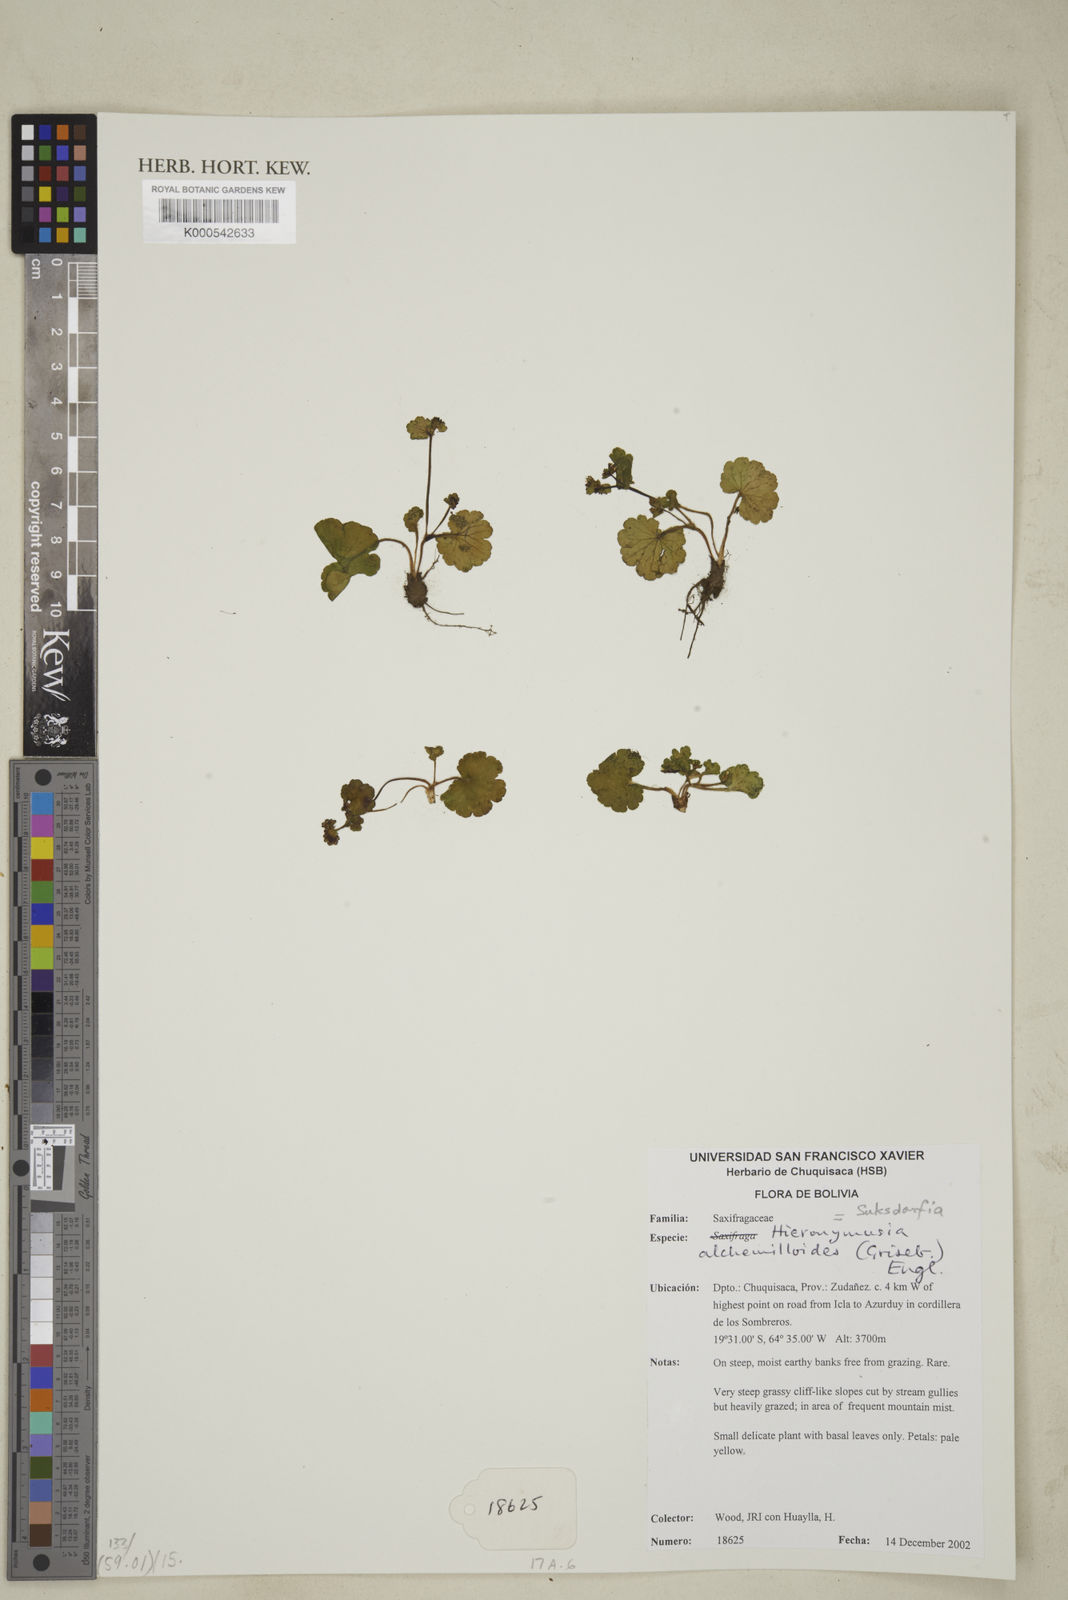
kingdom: Plantae
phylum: Tracheophyta
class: Magnoliopsida
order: Saxifragales
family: Saxifragaceae
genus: Hieronymusia
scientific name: Hieronymusia alchemilloides
